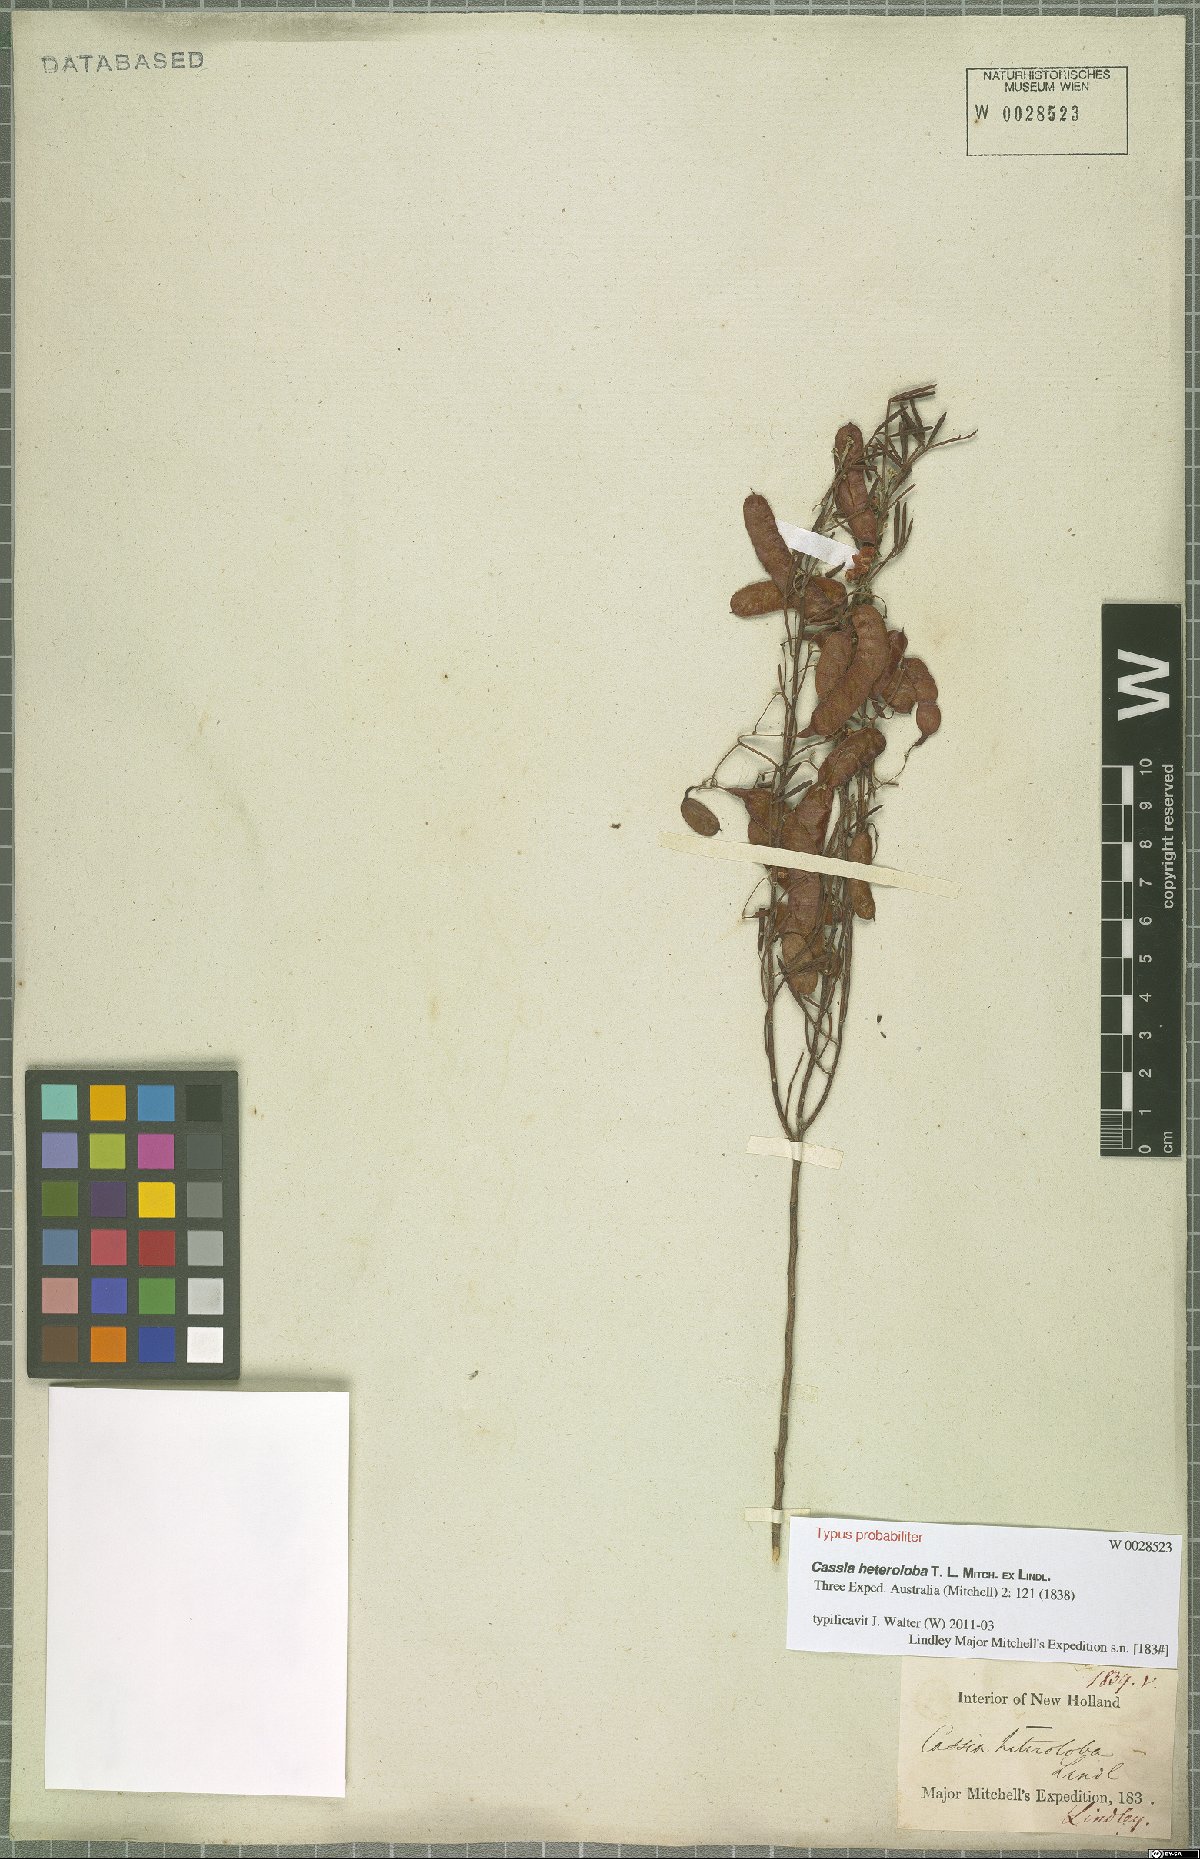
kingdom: Plantae
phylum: Tracheophyta
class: Magnoliopsida
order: Fabales
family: Fabaceae
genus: Cassia
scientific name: Cassia eremophila
